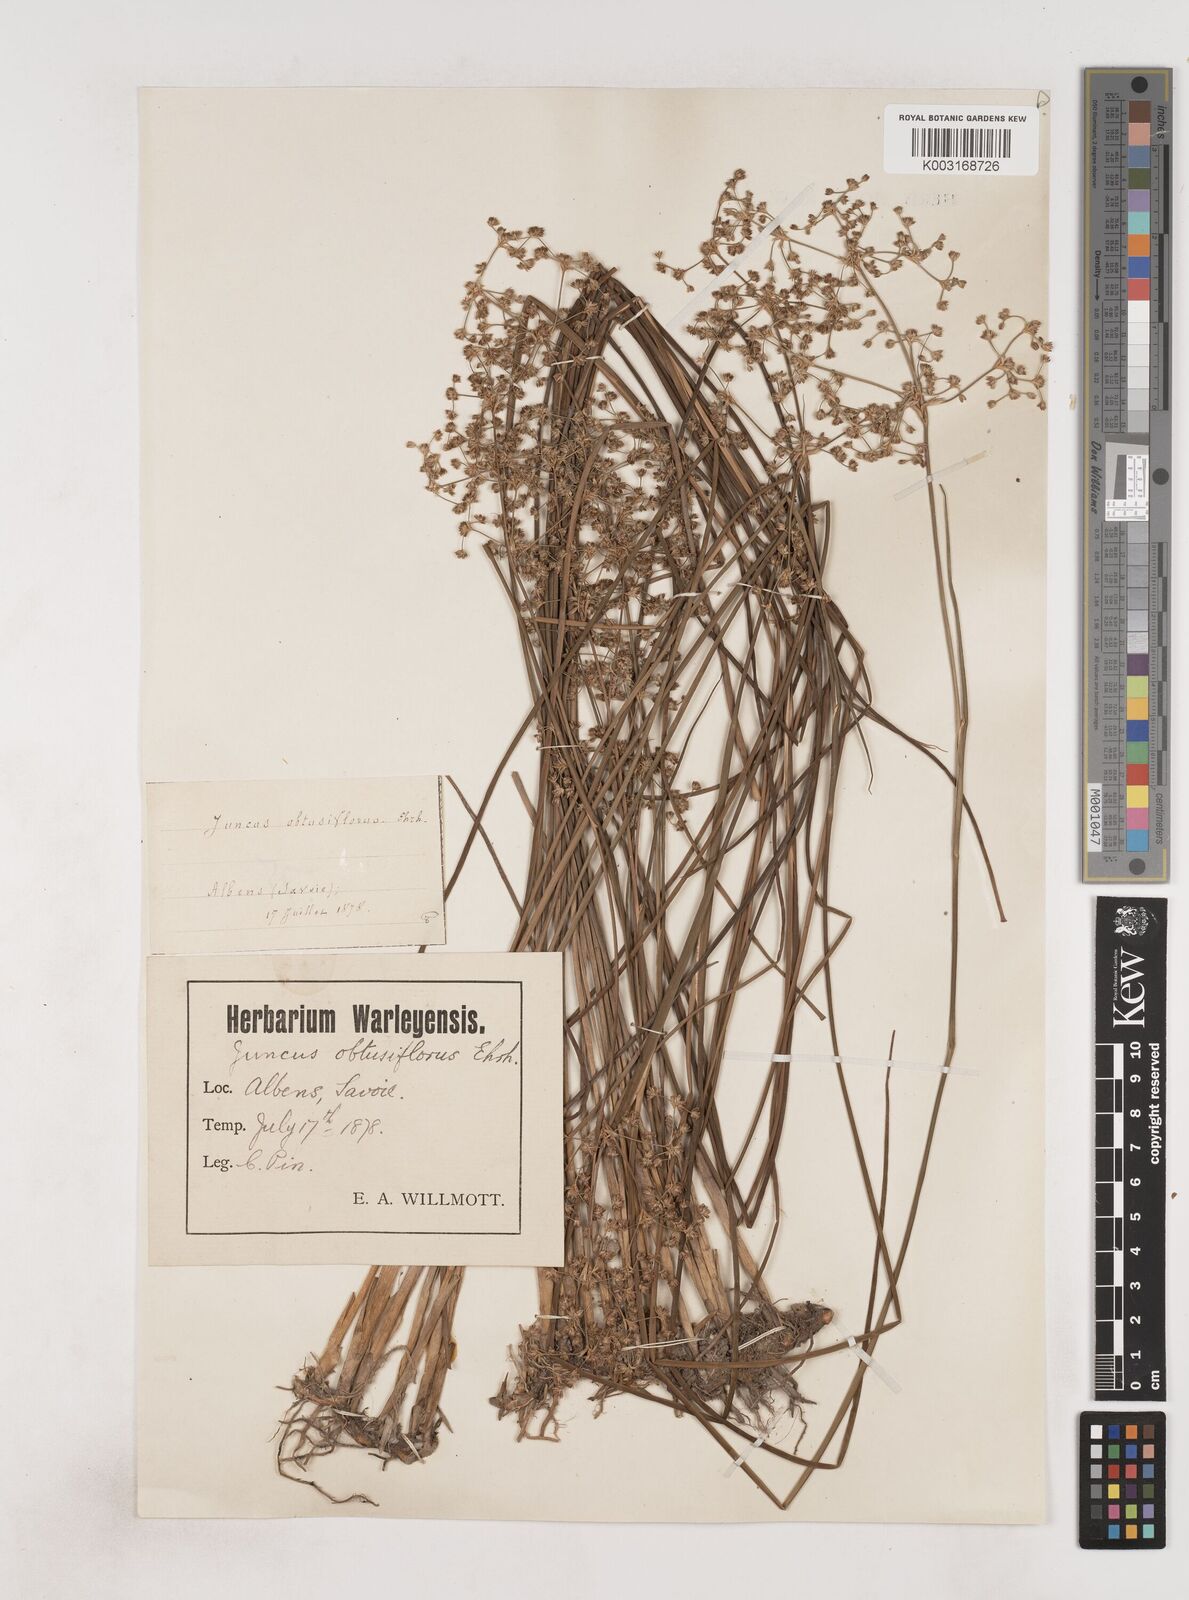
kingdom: Plantae
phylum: Tracheophyta
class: Liliopsida
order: Poales
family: Juncaceae
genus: Juncus
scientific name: Juncus subnodulosus
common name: Blunt-flowered rush
